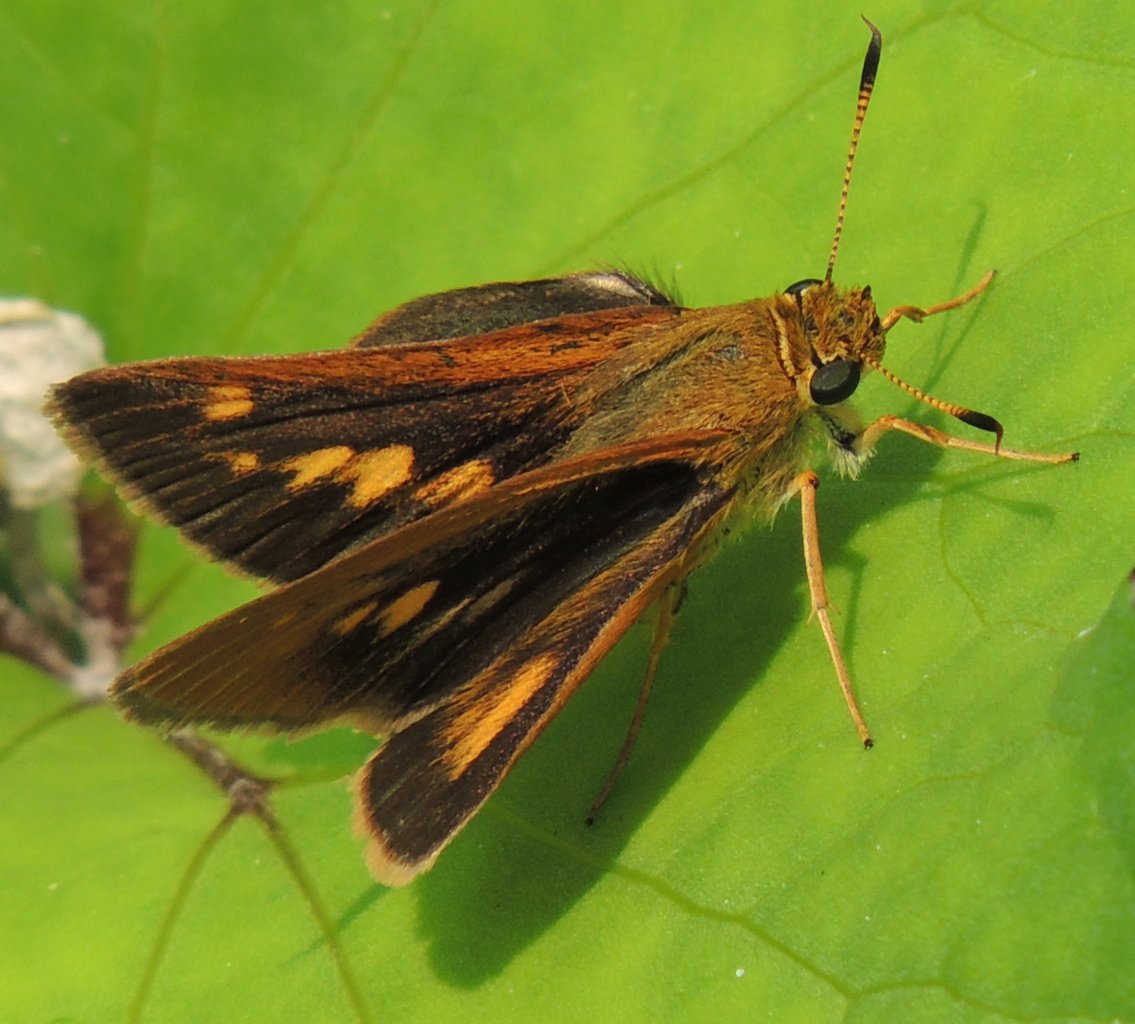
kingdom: Animalia
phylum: Arthropoda
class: Insecta
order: Lepidoptera
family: Hesperiidae
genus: Euphyes
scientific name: Euphyes dion
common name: Dion Skipper
